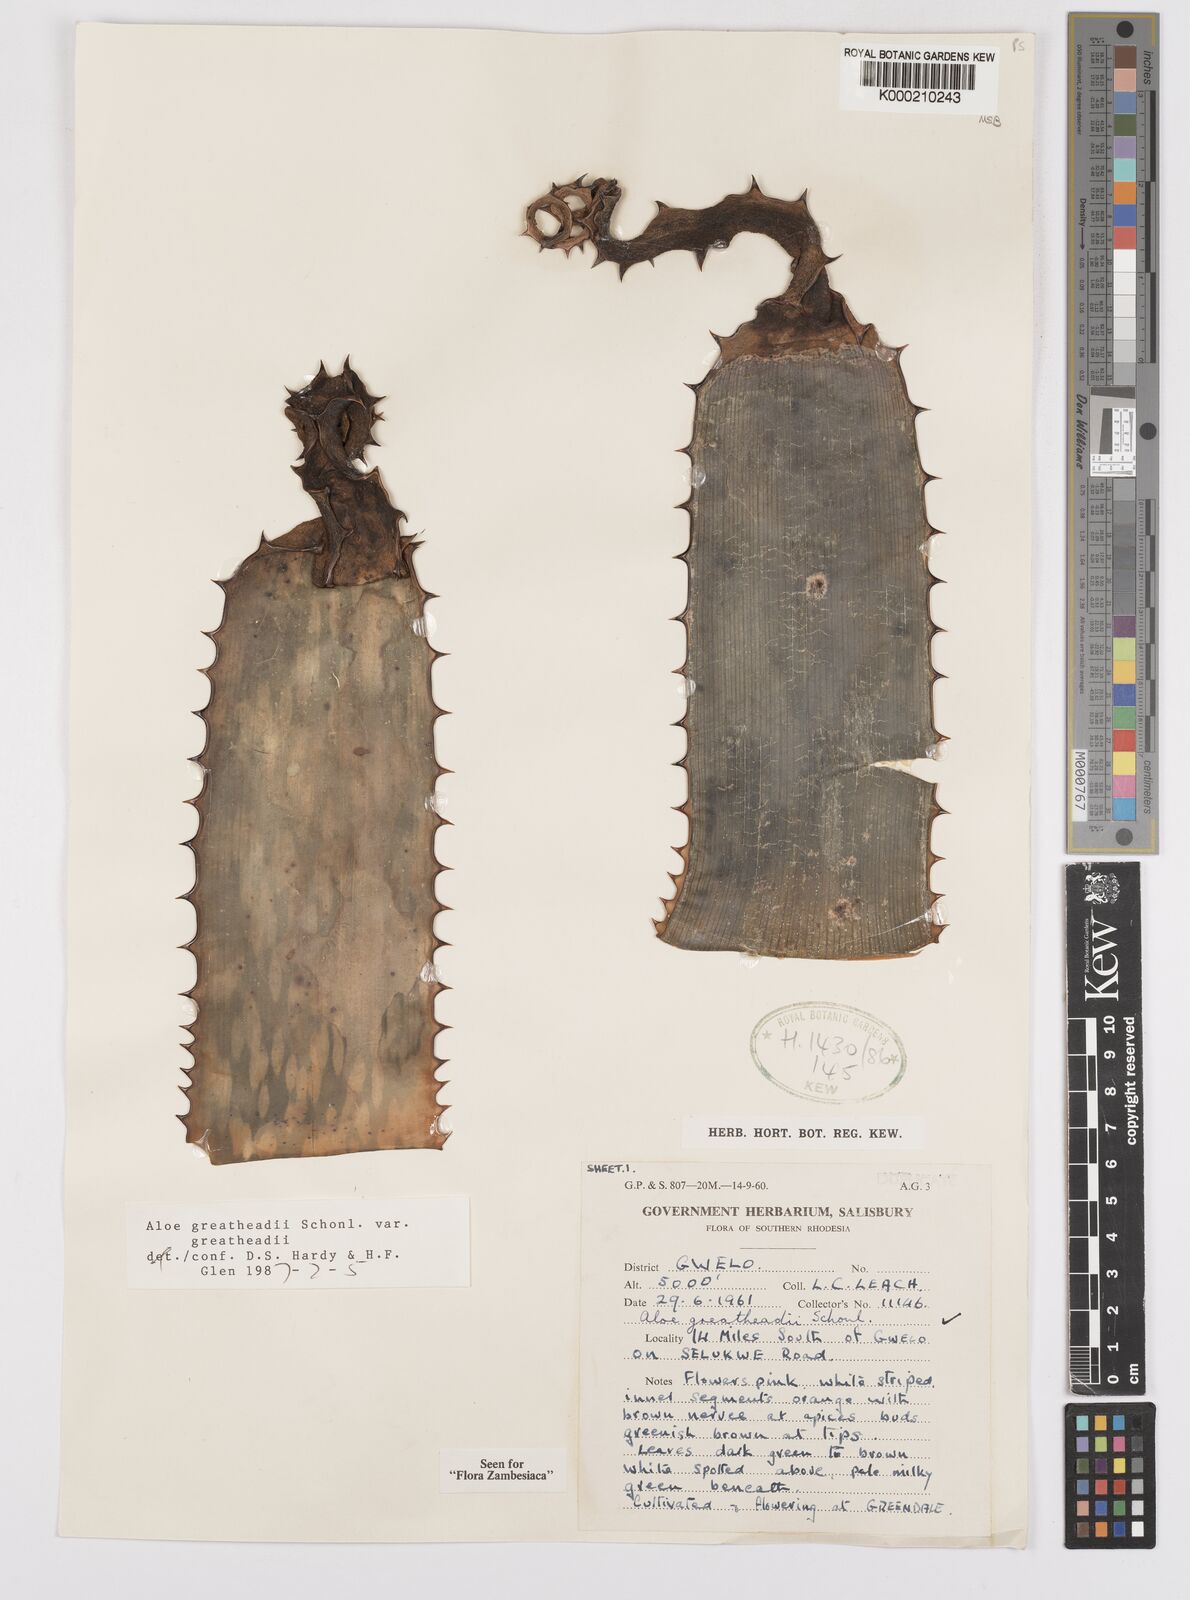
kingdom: Plantae
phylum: Tracheophyta
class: Liliopsida
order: Asparagales
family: Asphodelaceae
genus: Aloe
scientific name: Aloe greatheadii
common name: Greathead's aloe
